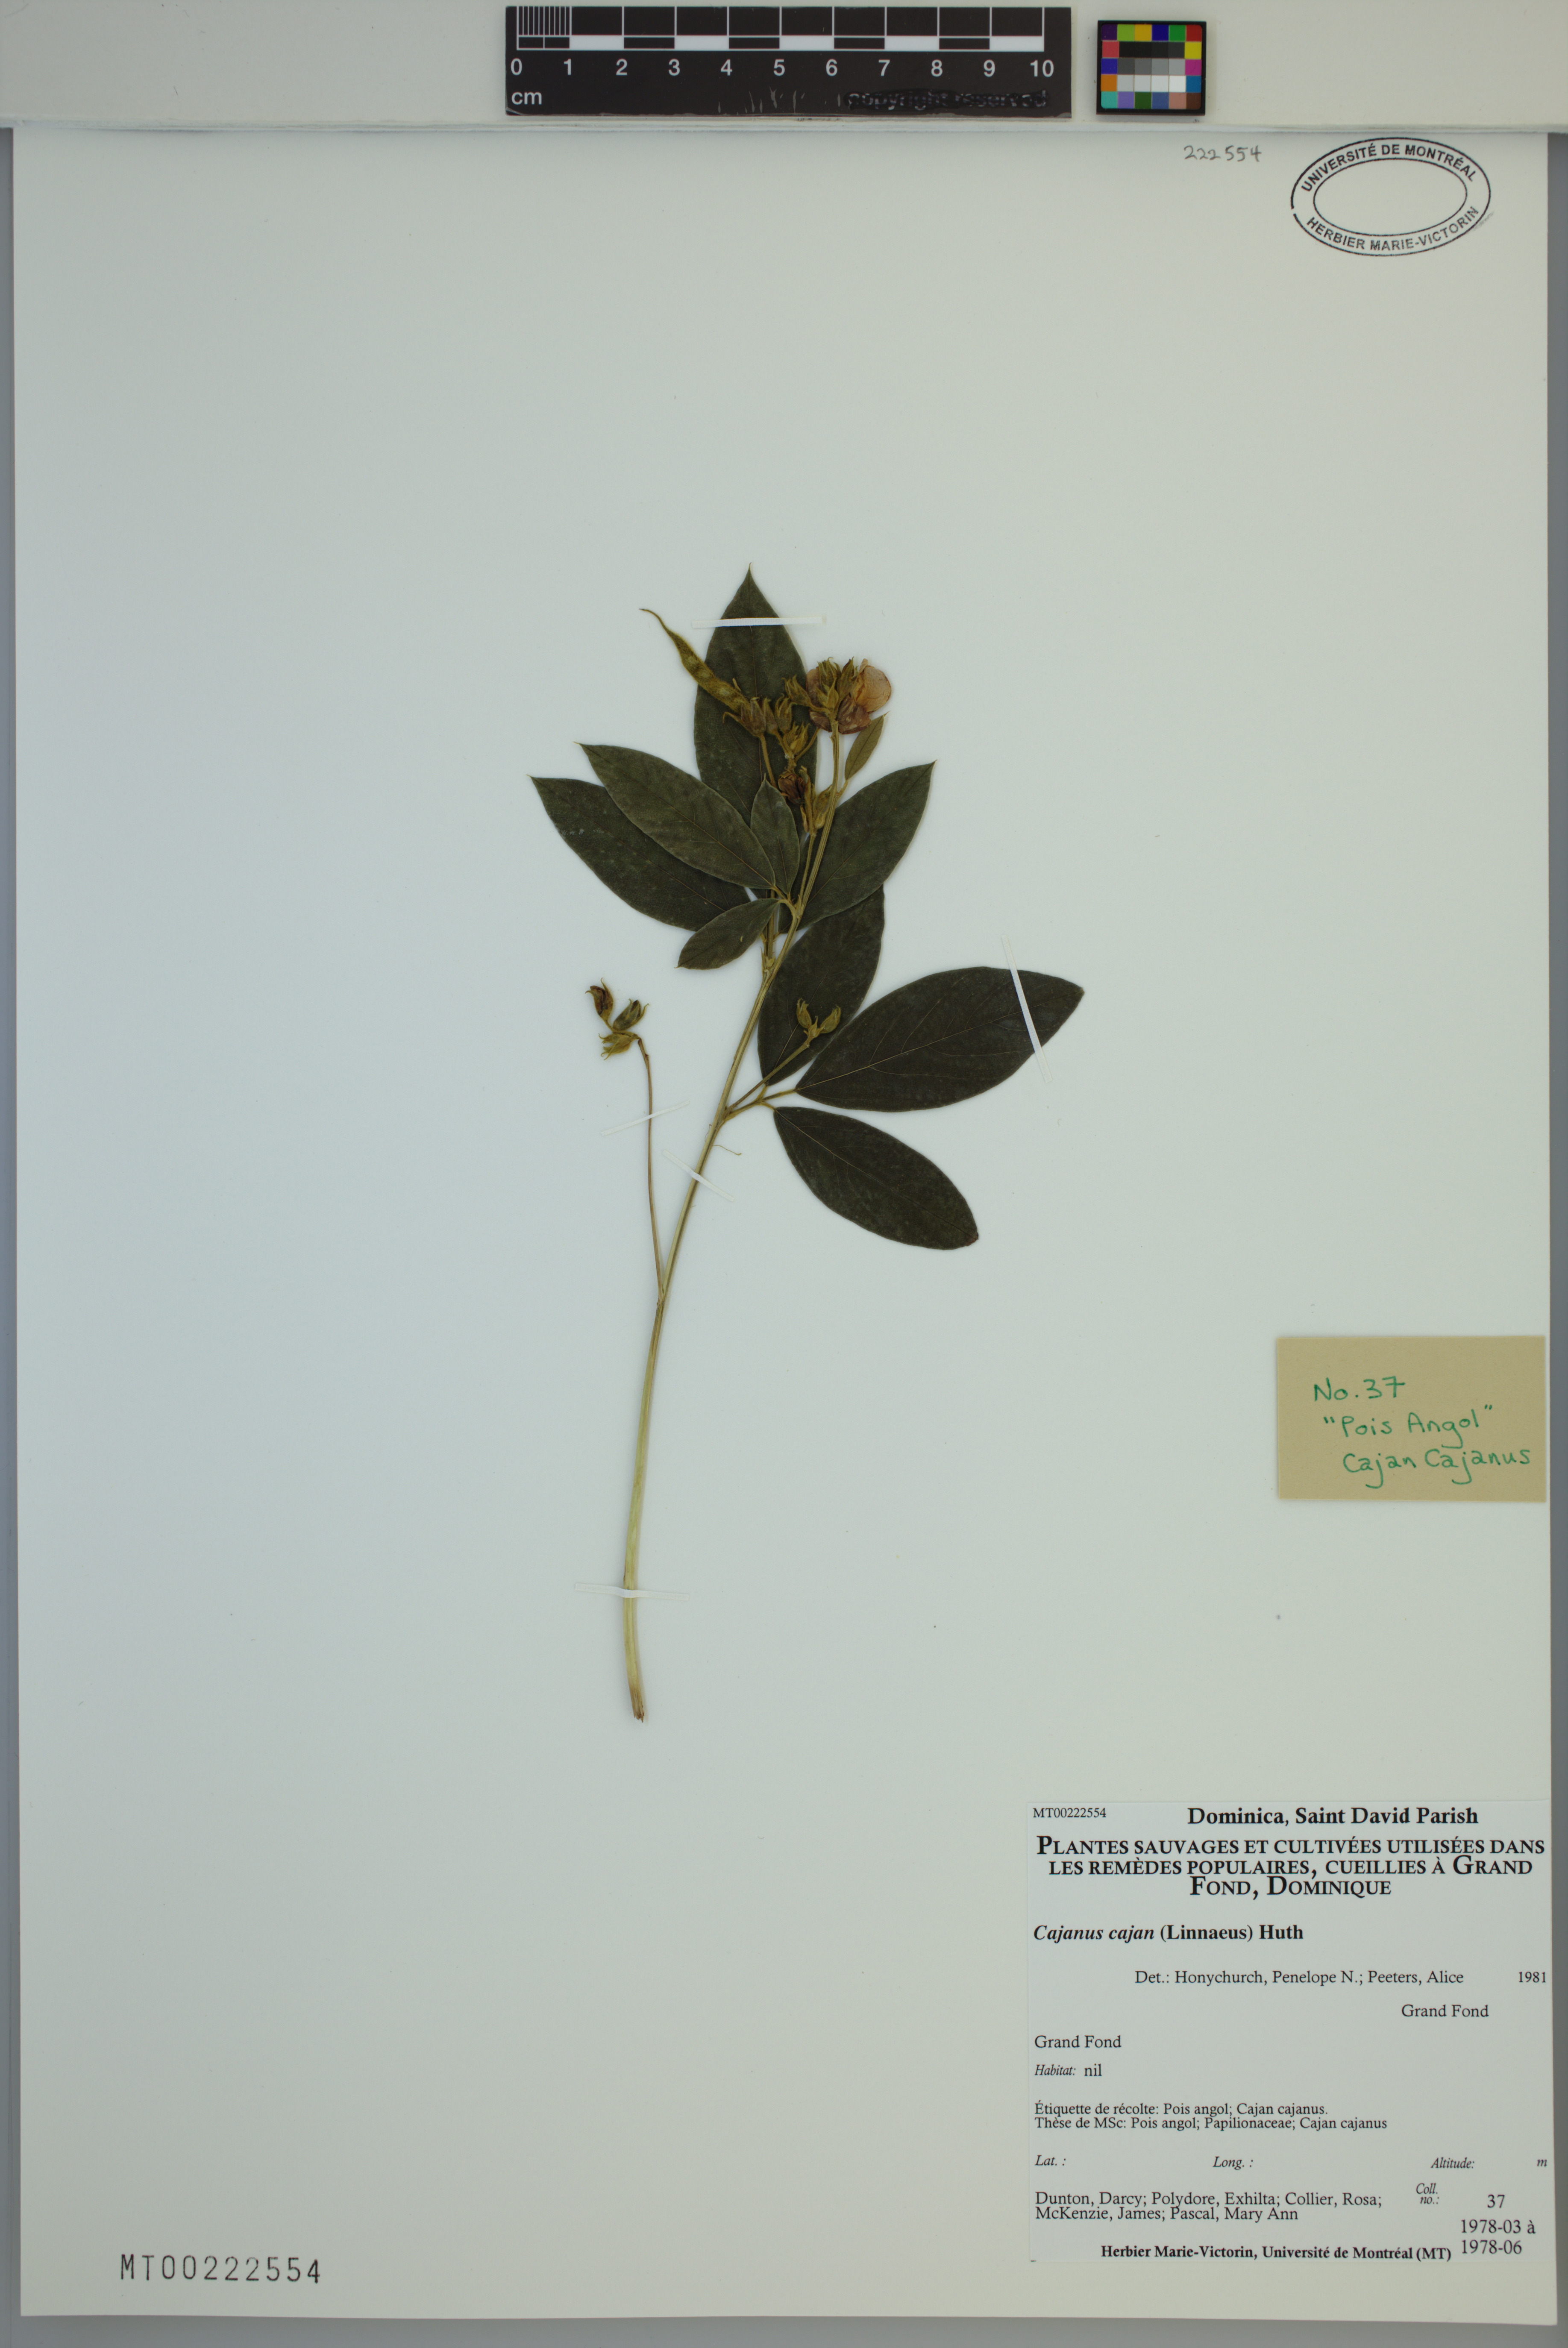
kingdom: Plantae
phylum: Tracheophyta
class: Magnoliopsida
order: Fabales
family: Fabaceae
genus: Cajanus
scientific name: Cajanus cajan
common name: Pigeonpea
